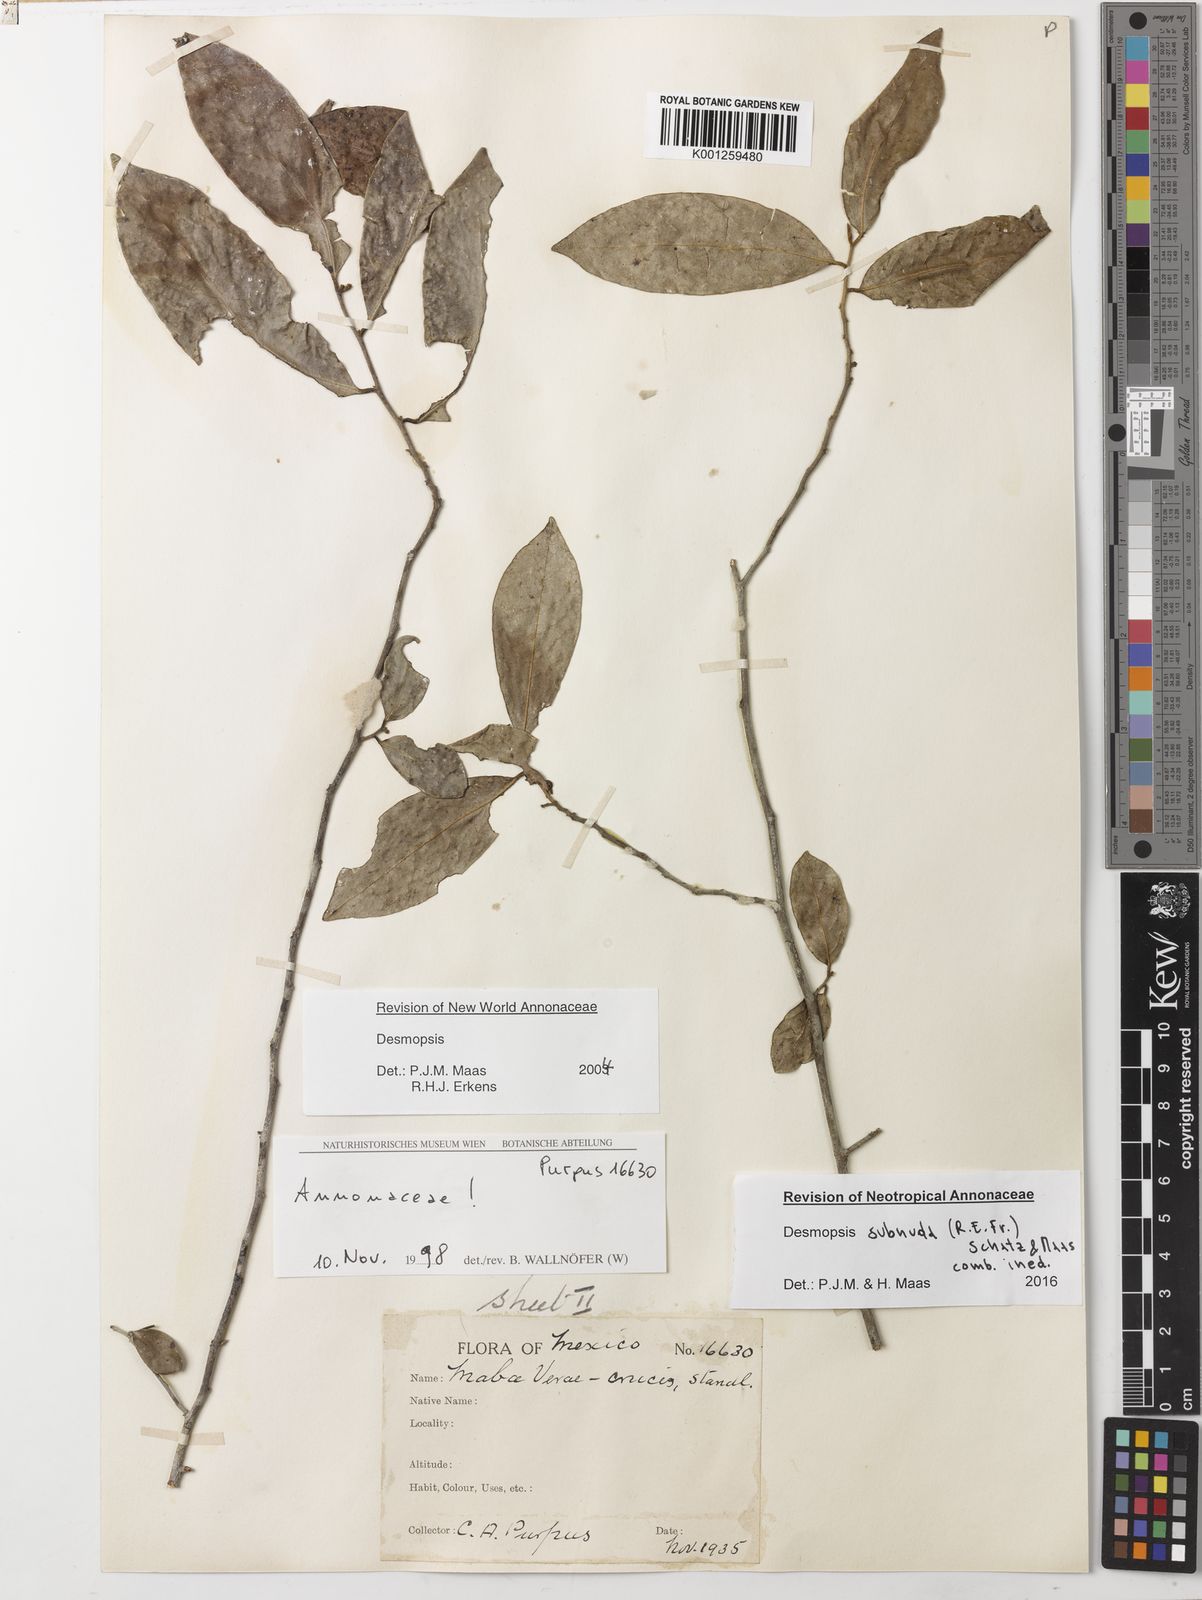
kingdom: Plantae
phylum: Tracheophyta
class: Magnoliopsida
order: Magnoliales
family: Annonaceae
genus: Desmopsis
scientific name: Desmopsis
